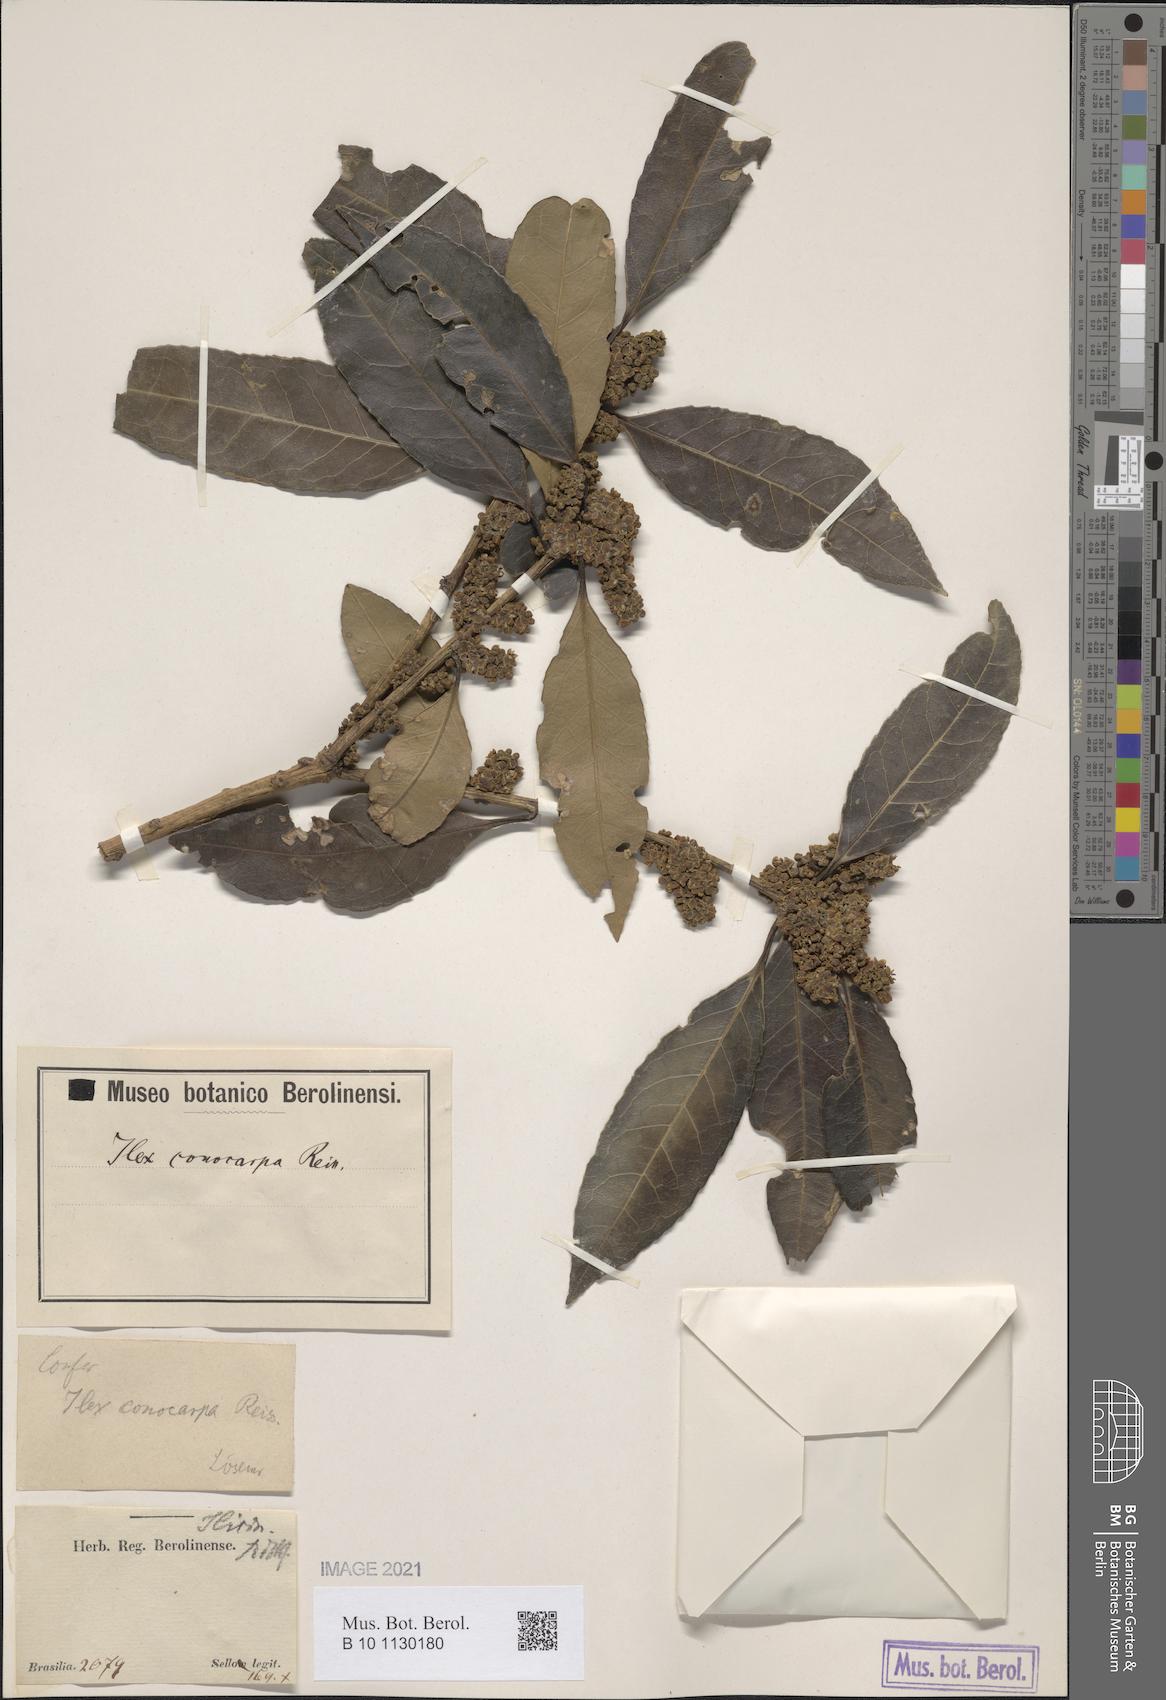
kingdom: Plantae
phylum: Tracheophyta
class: Magnoliopsida
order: Aquifoliales
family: Aquifoliaceae
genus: Ilex
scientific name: Ilex conocarpa
